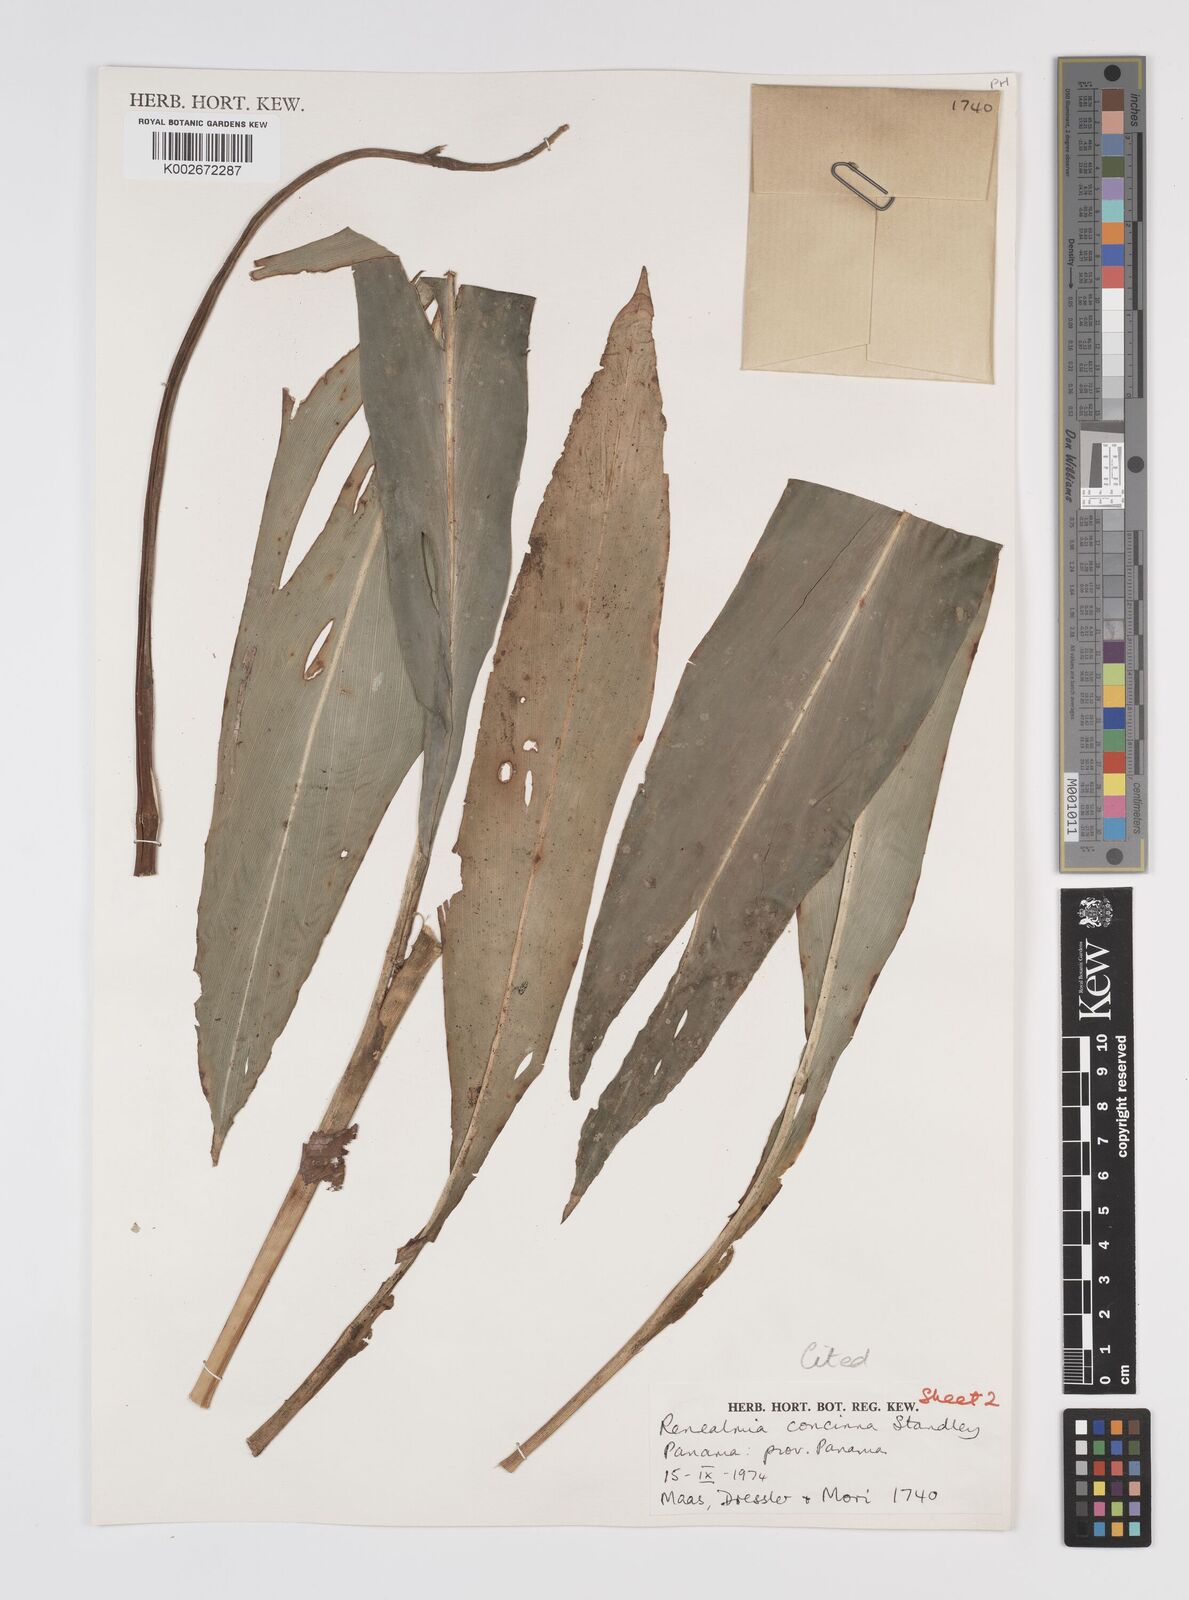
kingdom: Plantae
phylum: Tracheophyta
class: Liliopsida
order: Zingiberales
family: Zingiberaceae
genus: Renealmia
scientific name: Renealmia concinna
